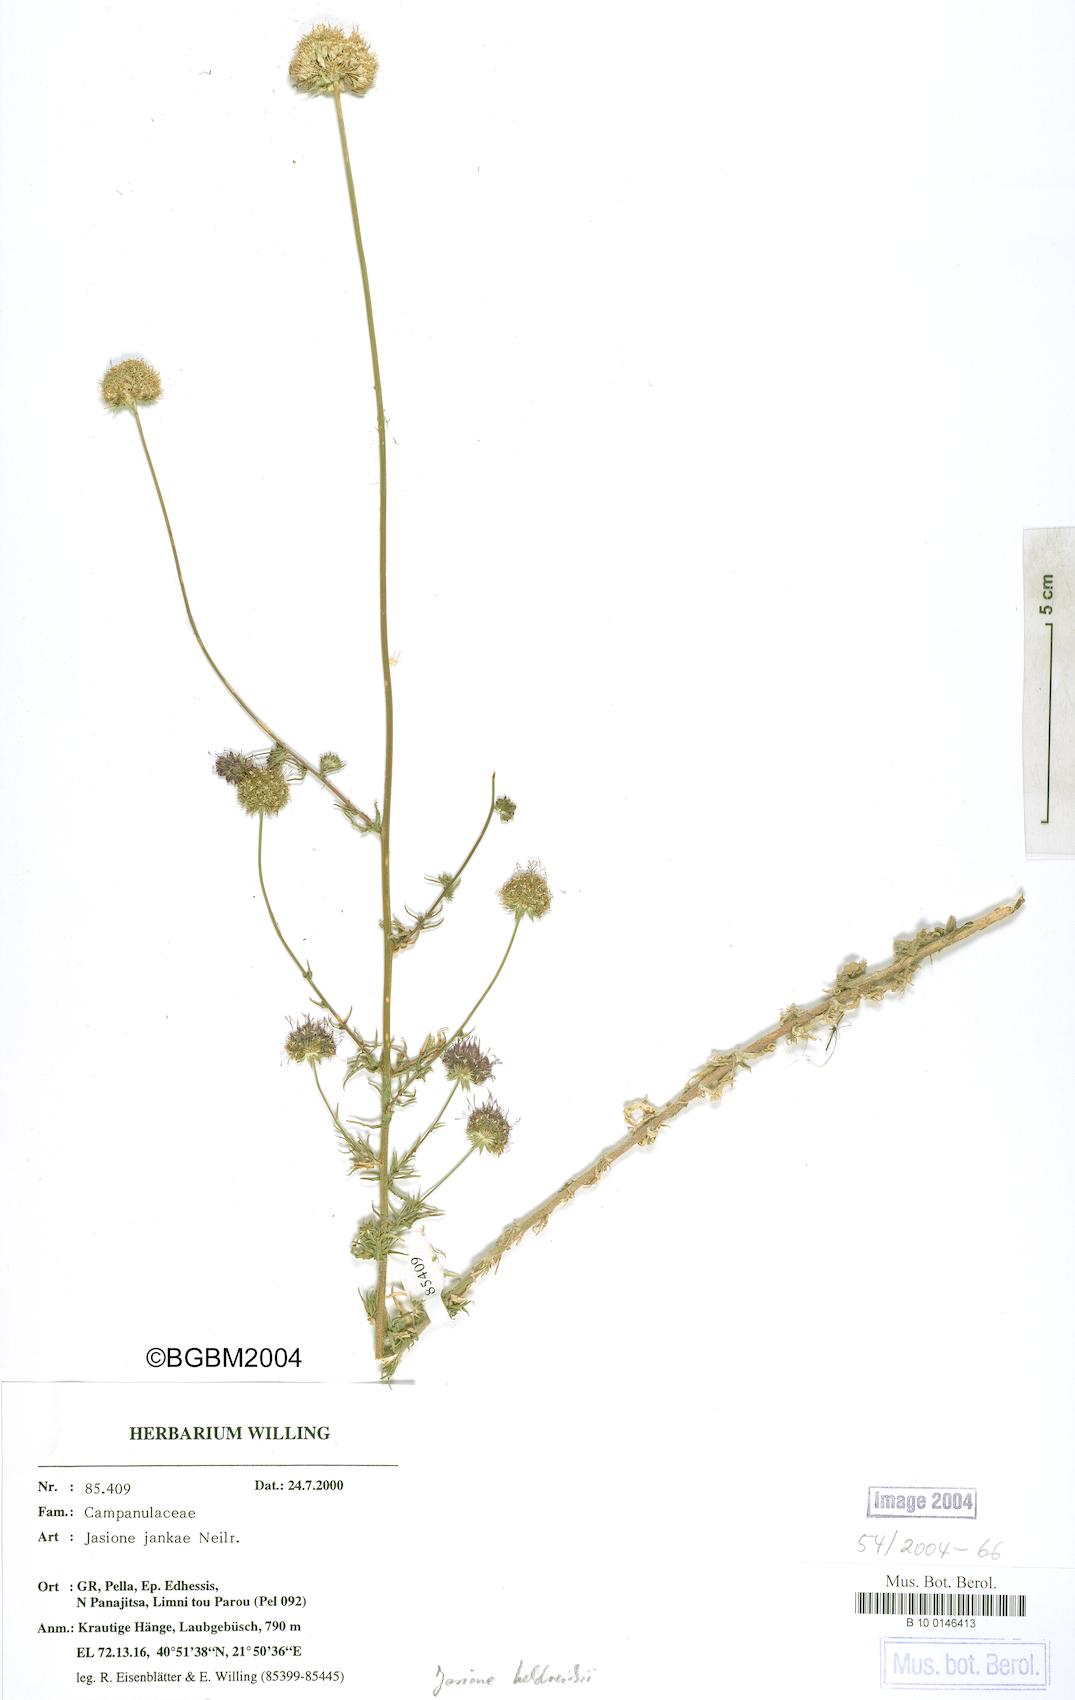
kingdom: Plantae
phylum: Tracheophyta
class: Magnoliopsida
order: Asterales
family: Campanulaceae
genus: Jasione
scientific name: Jasione heldreichii
